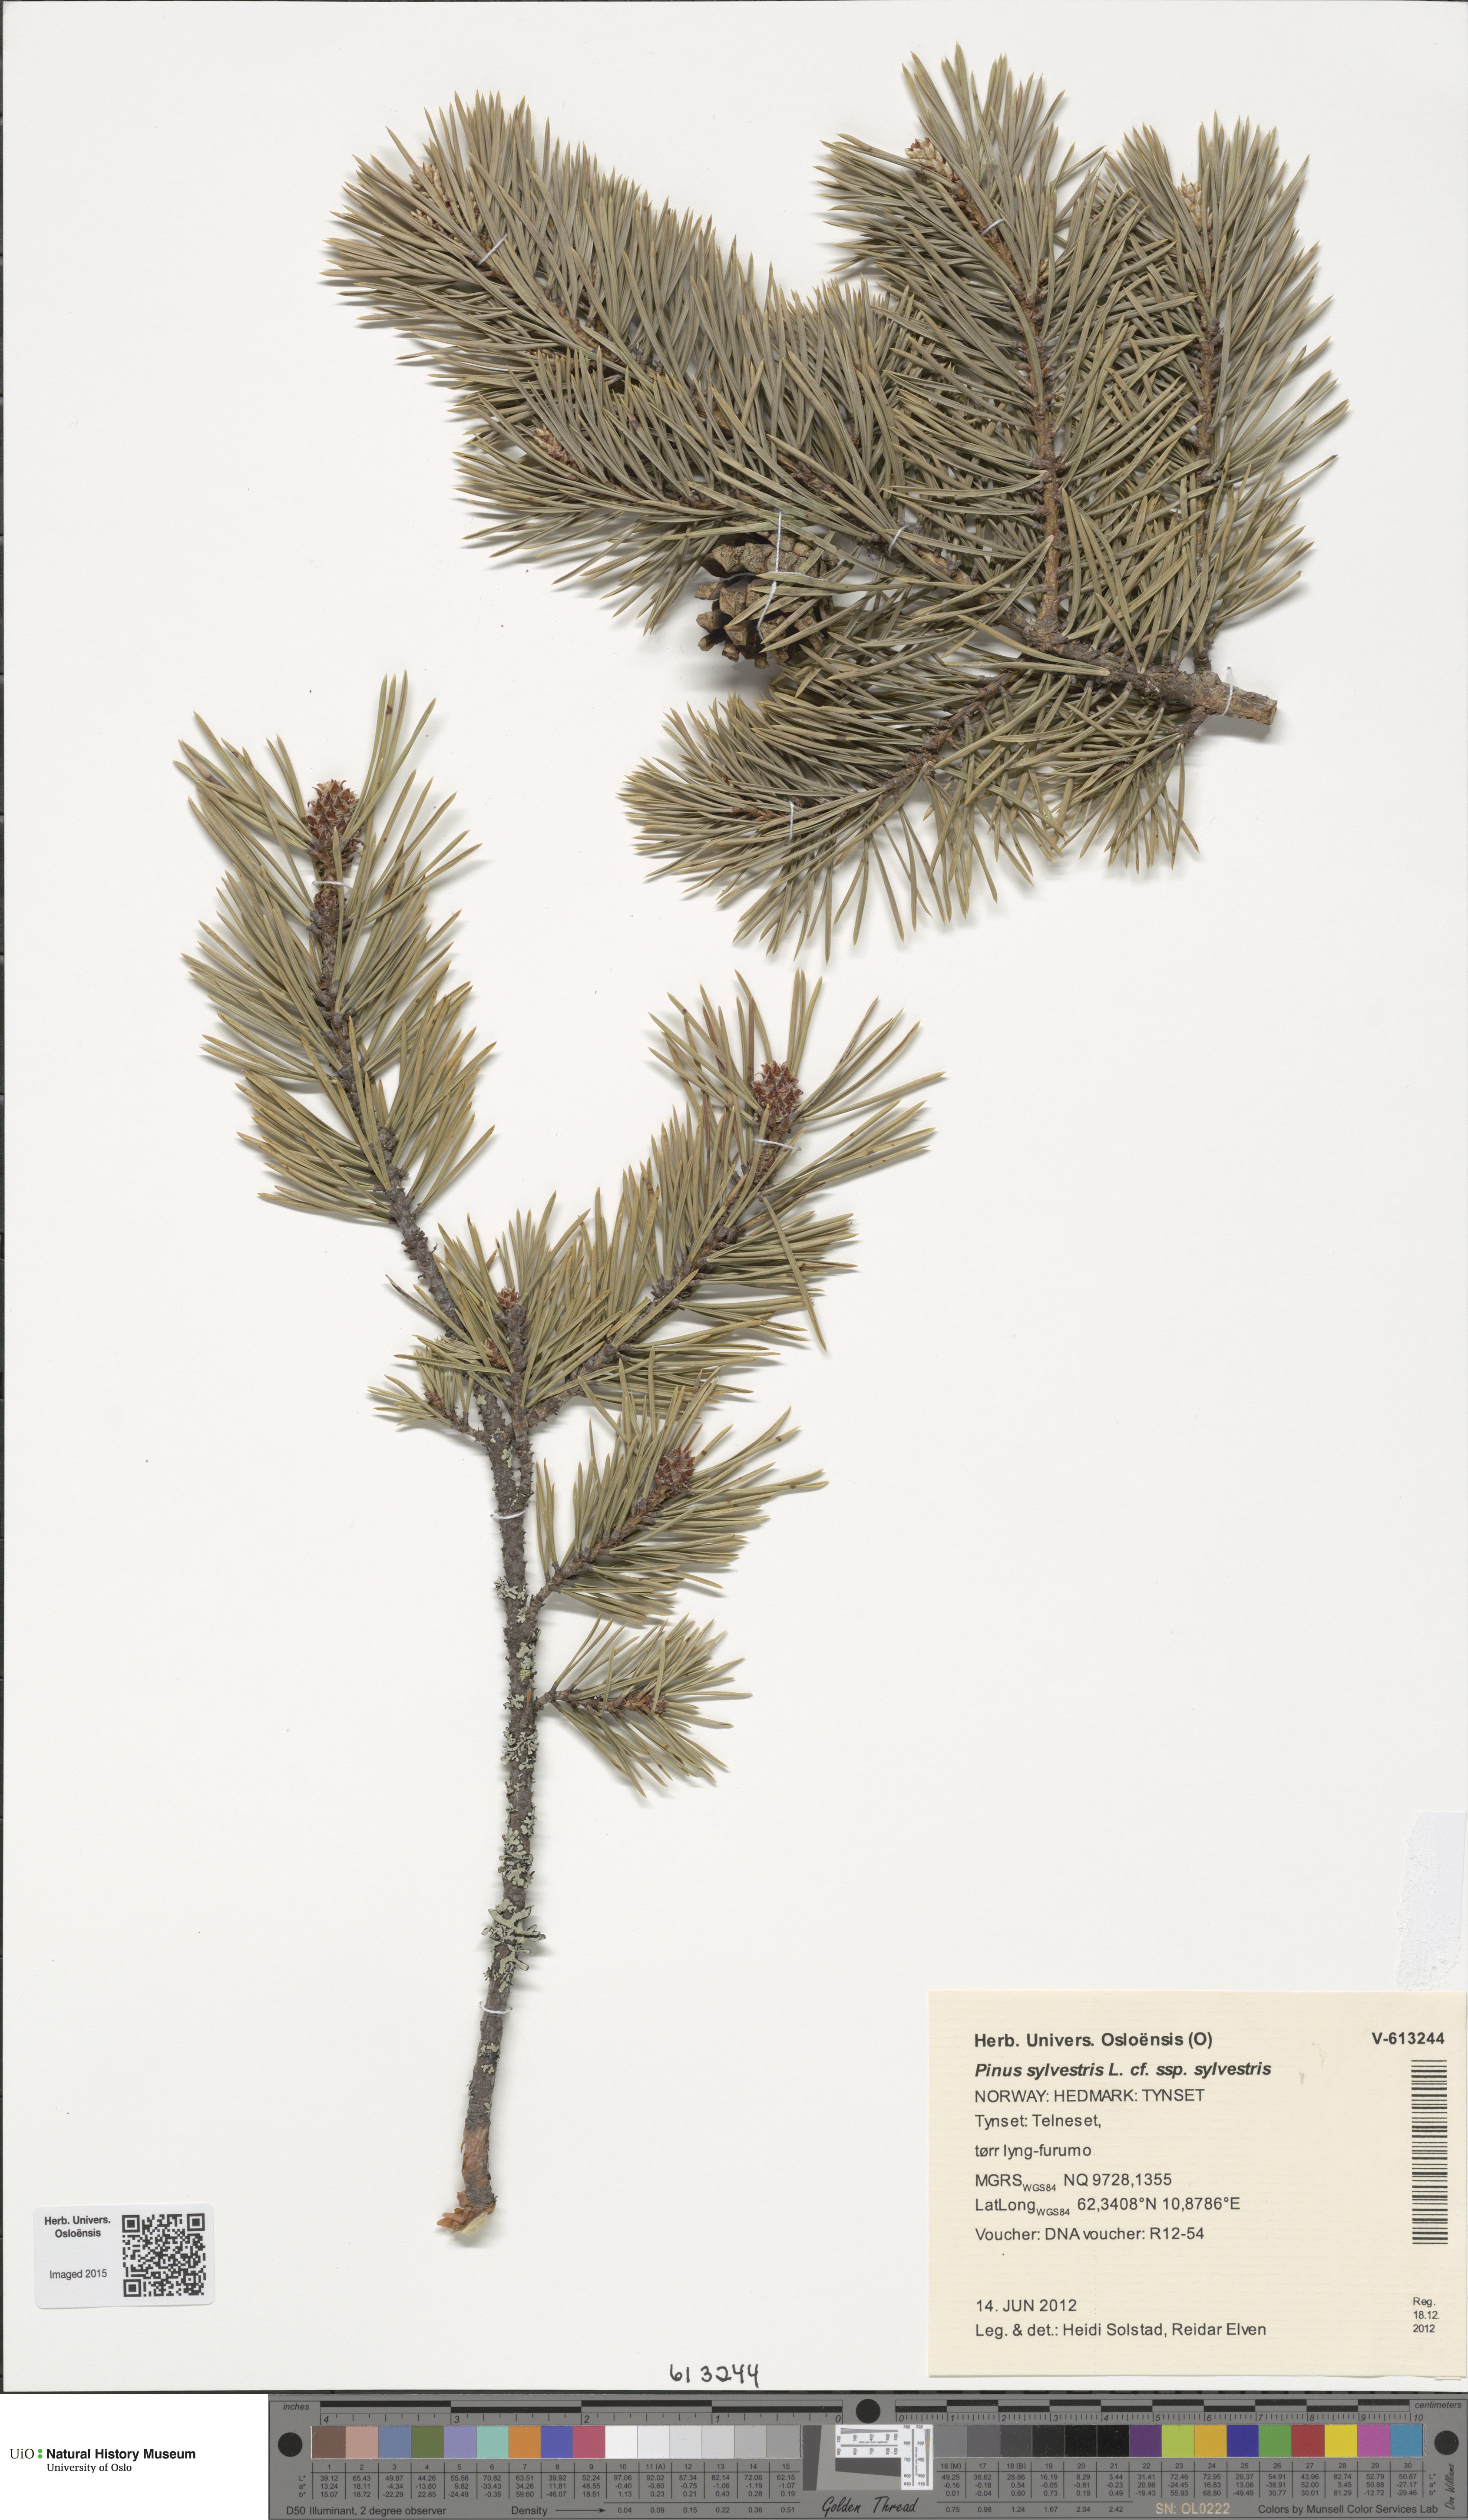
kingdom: Plantae
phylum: Tracheophyta
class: Pinopsida
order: Pinales
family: Pinaceae
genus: Pinus
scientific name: Pinus sylvestris
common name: Scots pine
